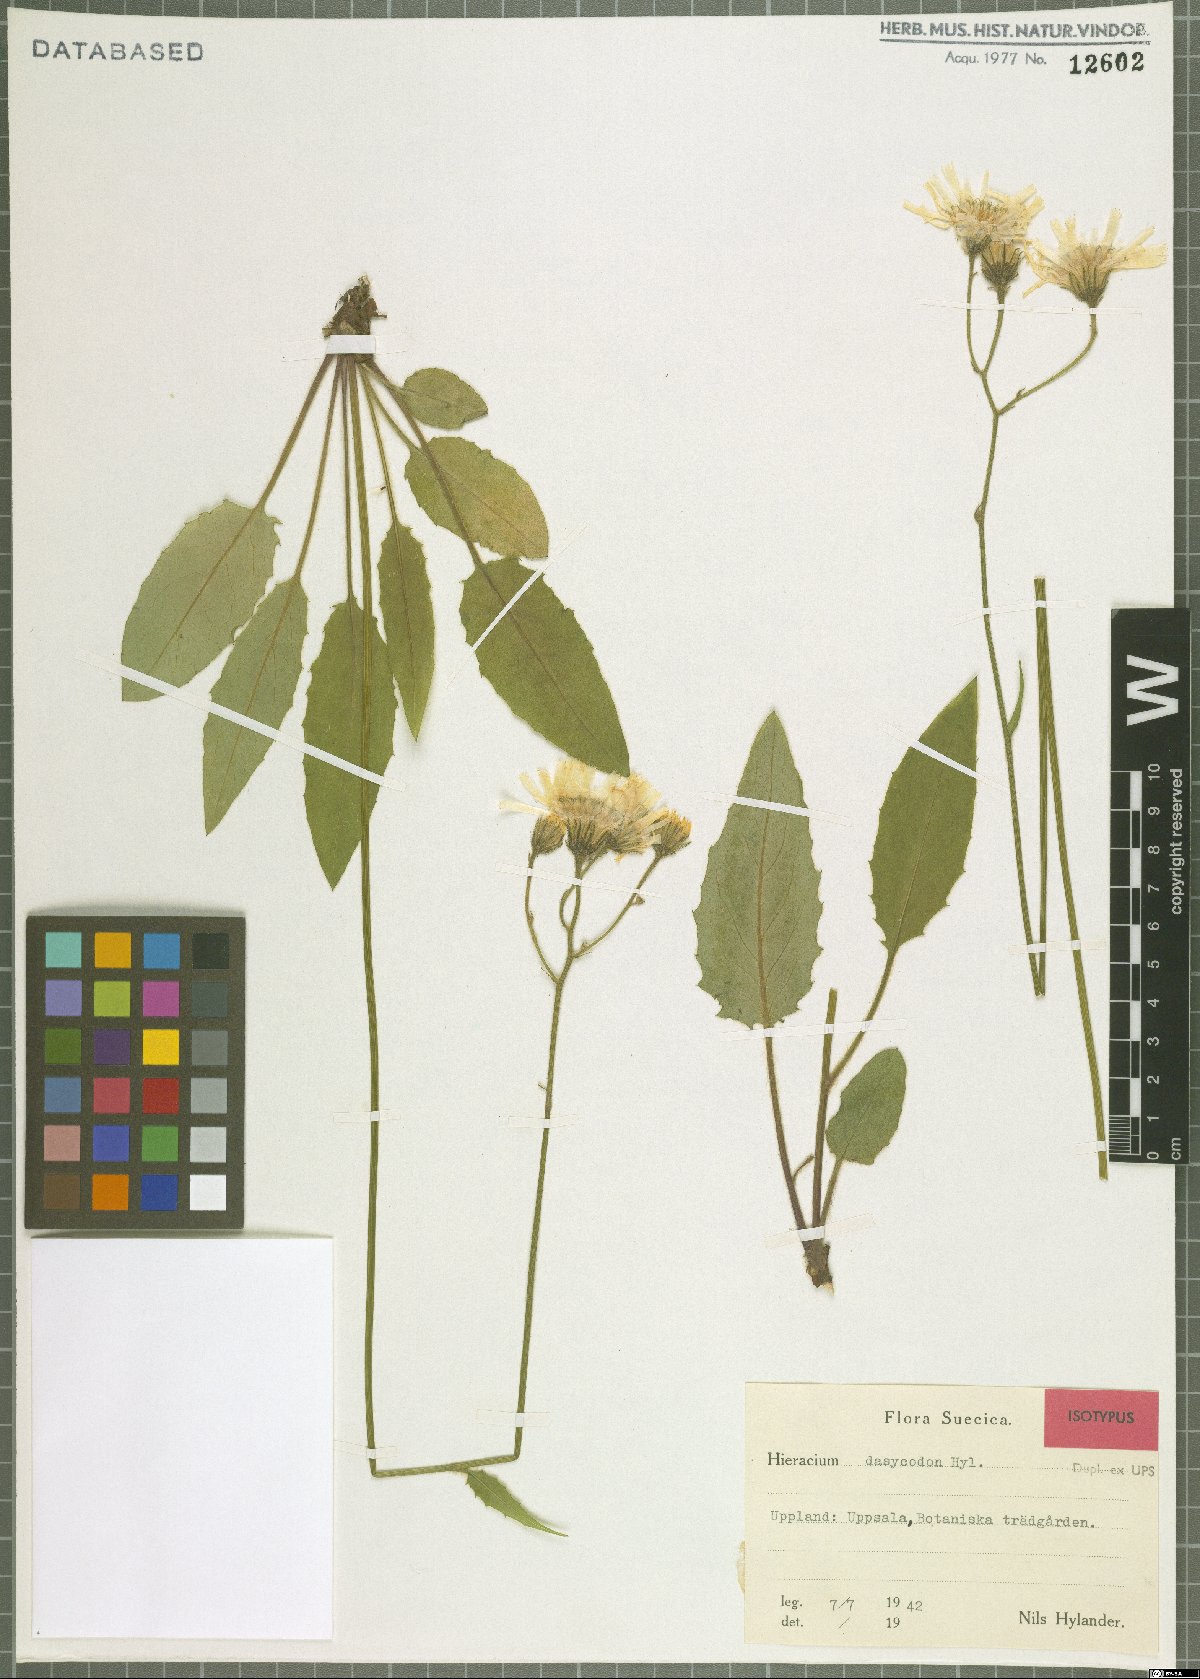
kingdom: Plantae
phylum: Tracheophyta
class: Magnoliopsida
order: Asterales
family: Asteraceae
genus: Hieracium
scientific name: Hieracium cyrtocladum
